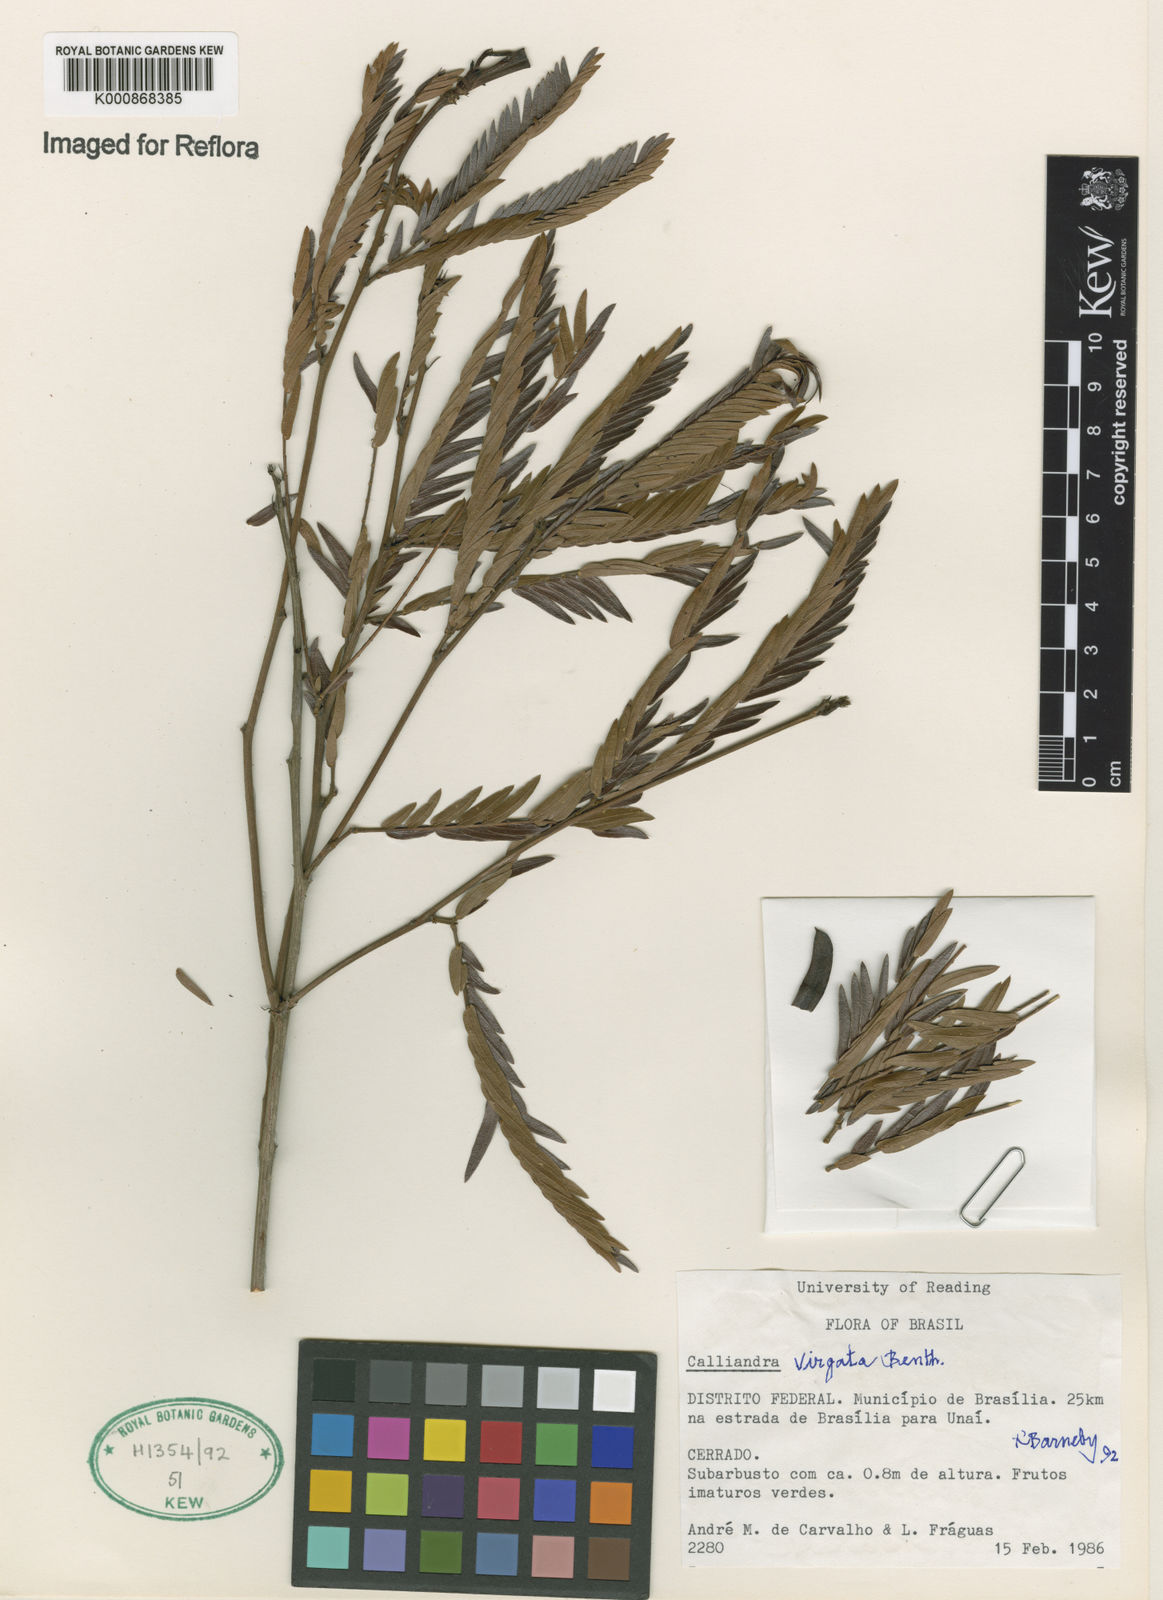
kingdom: Plantae
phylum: Tracheophyta
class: Magnoliopsida
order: Fabales
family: Fabaceae
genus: Calliandra
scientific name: Calliandra virgata
